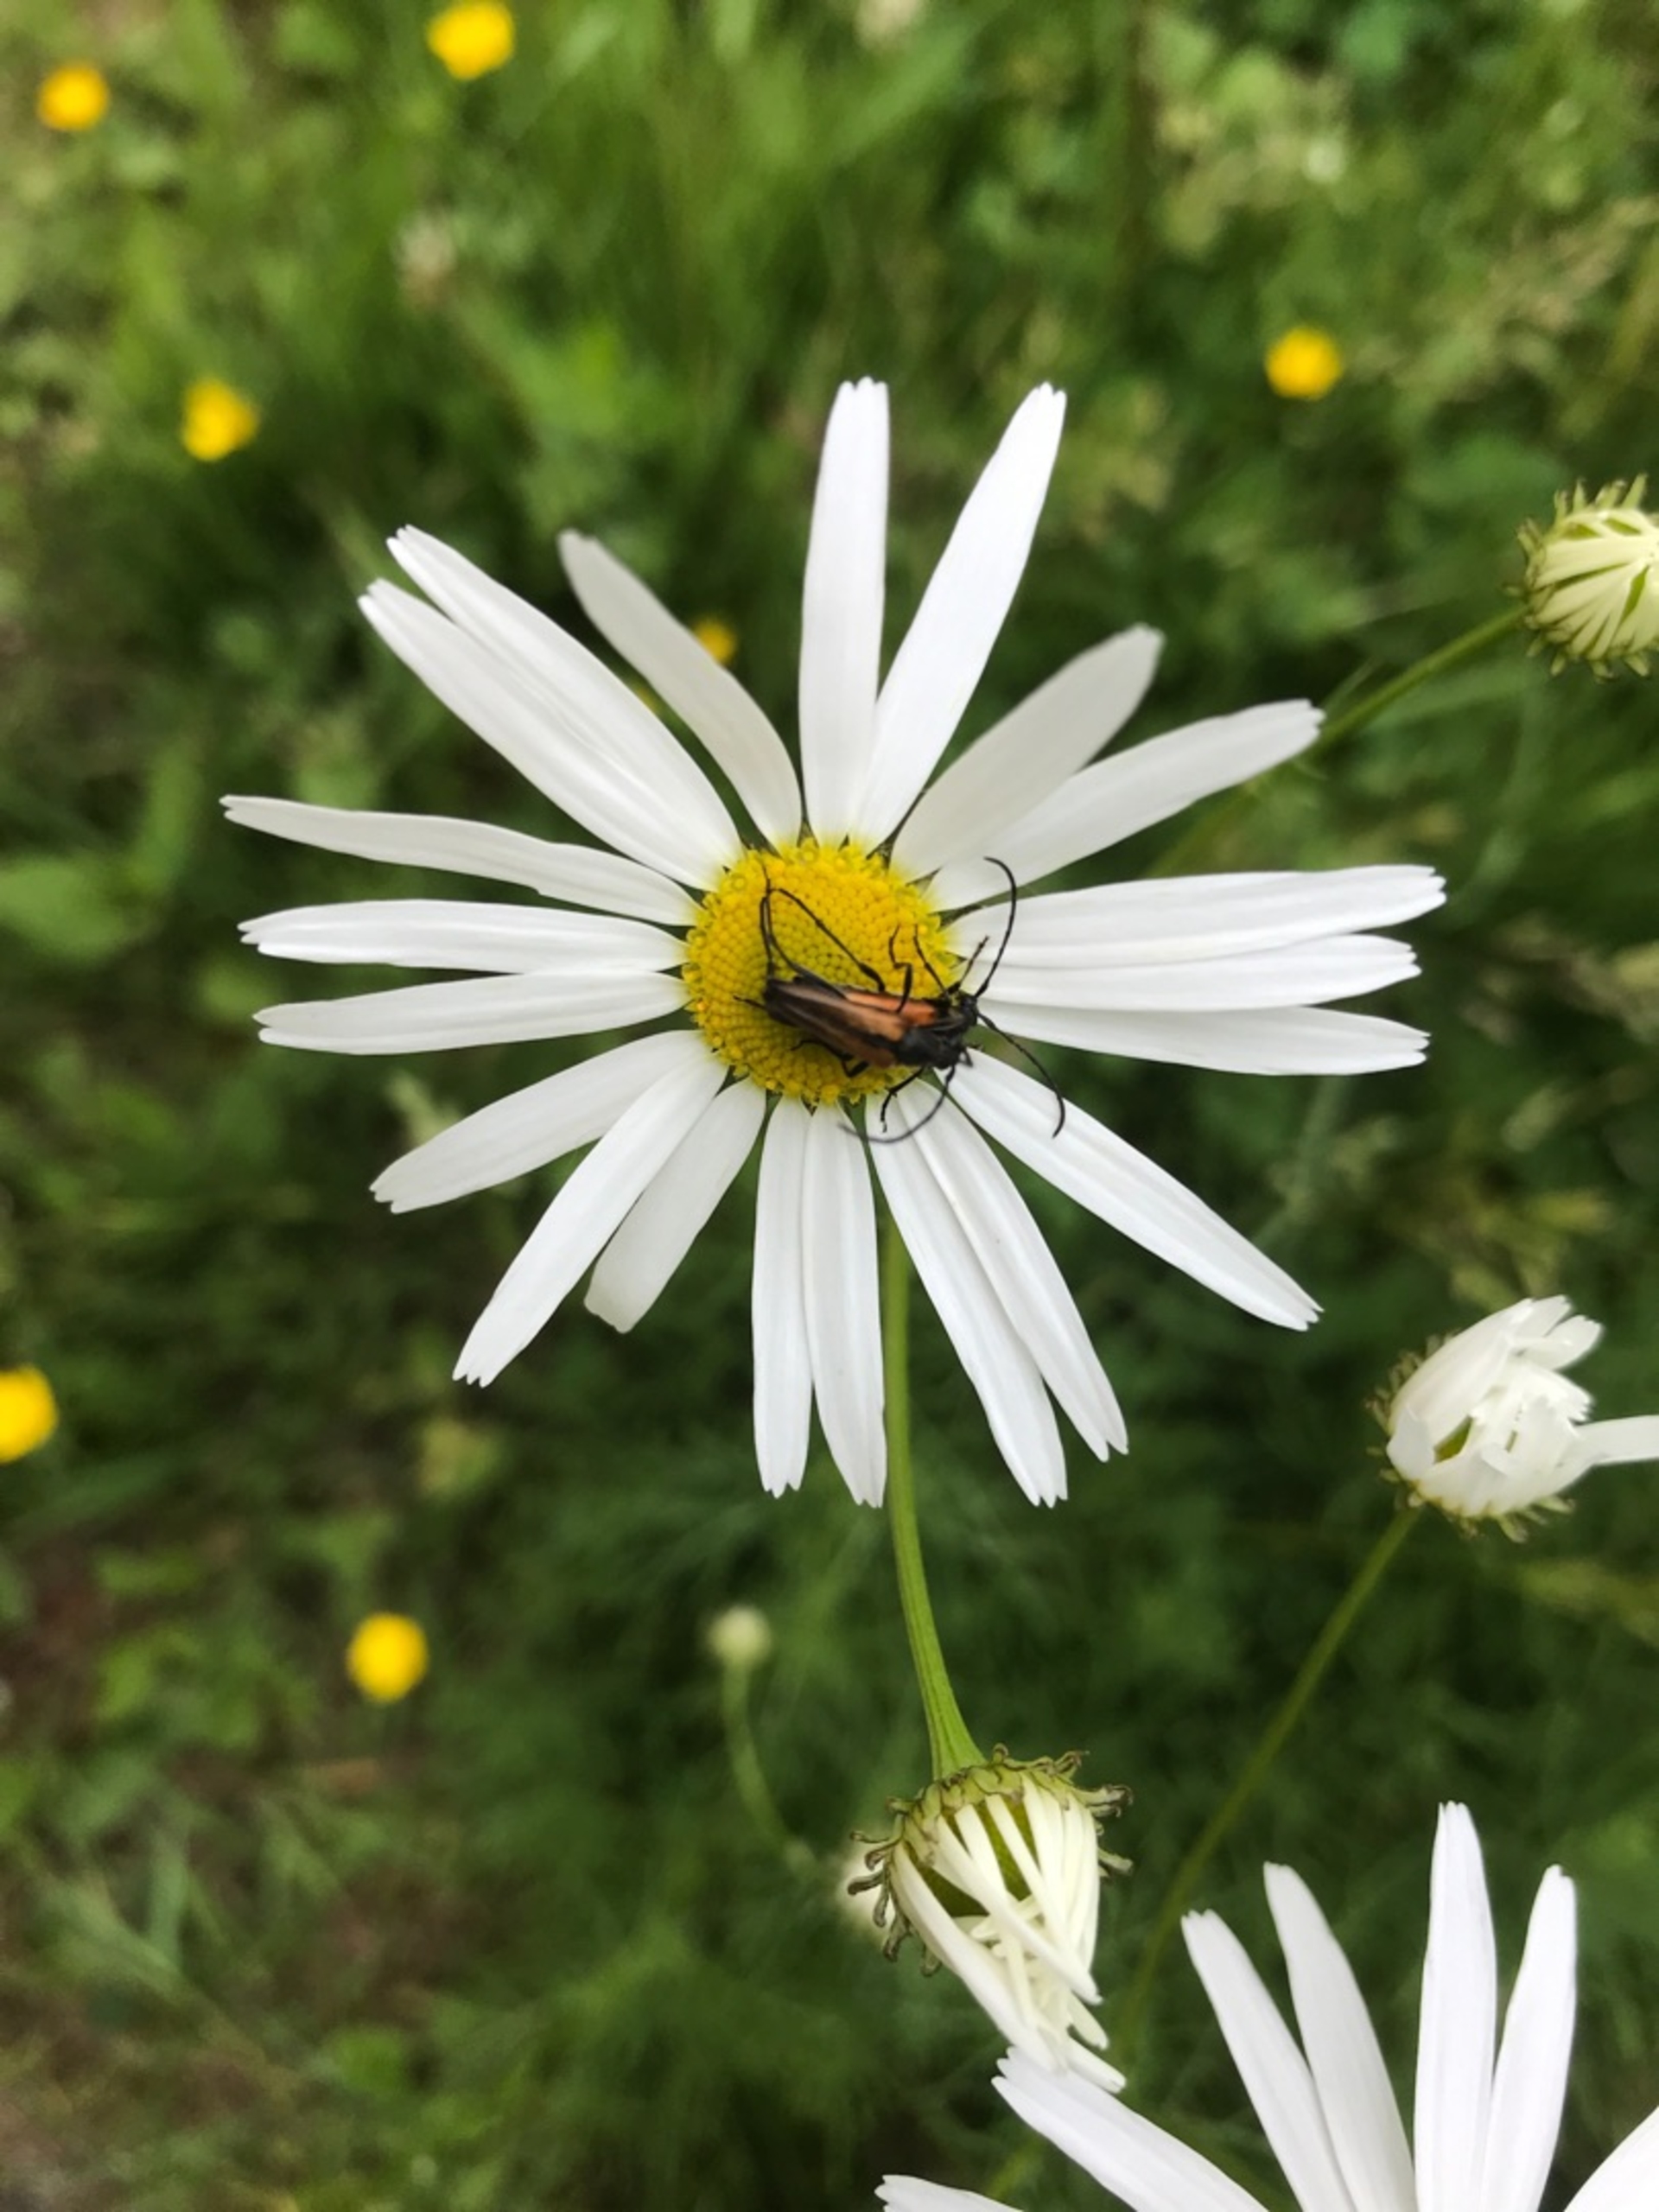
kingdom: Animalia
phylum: Arthropoda
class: Insecta
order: Coleoptera
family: Cerambycidae
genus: Stenurella
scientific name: Stenurella melanura
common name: Sortsømmet blomsterbuk
